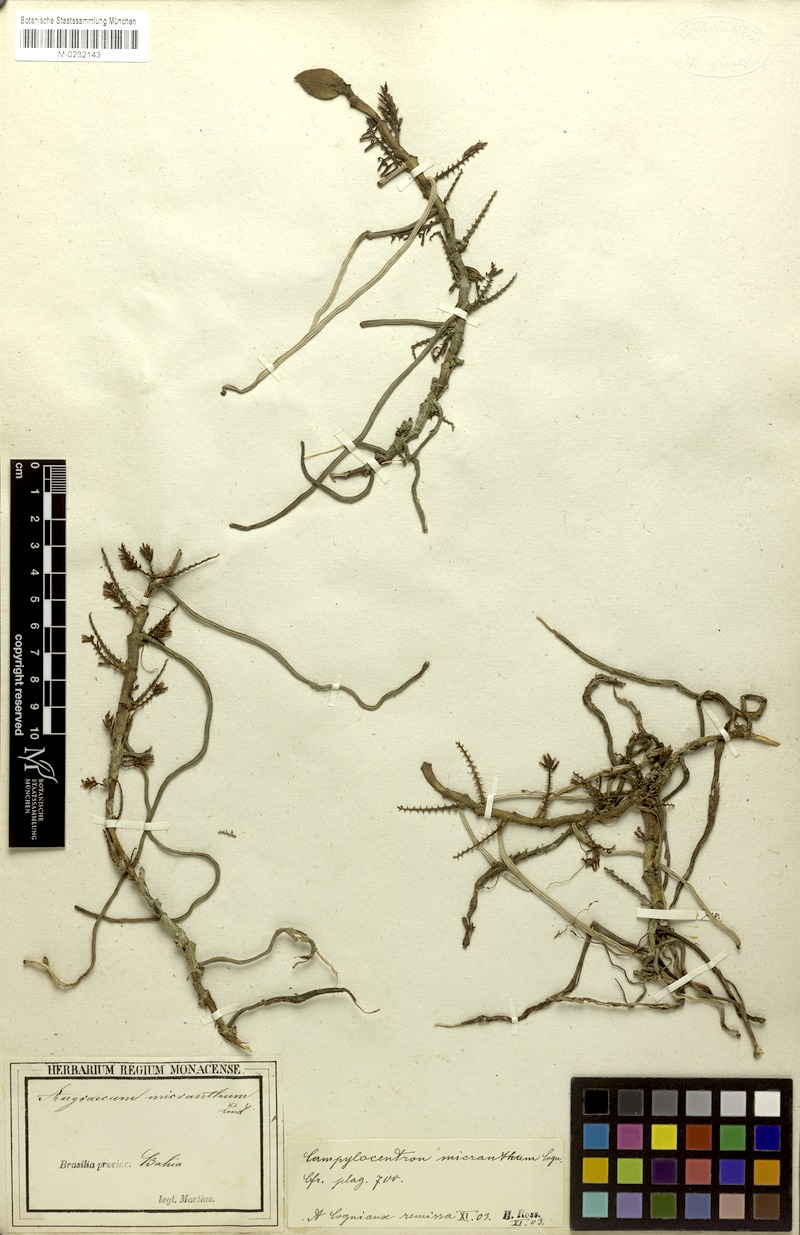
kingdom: Plantae
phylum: Tracheophyta
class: Liliopsida
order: Asparagales
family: Orchidaceae
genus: Campylocentrum
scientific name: Campylocentrum micranthum
